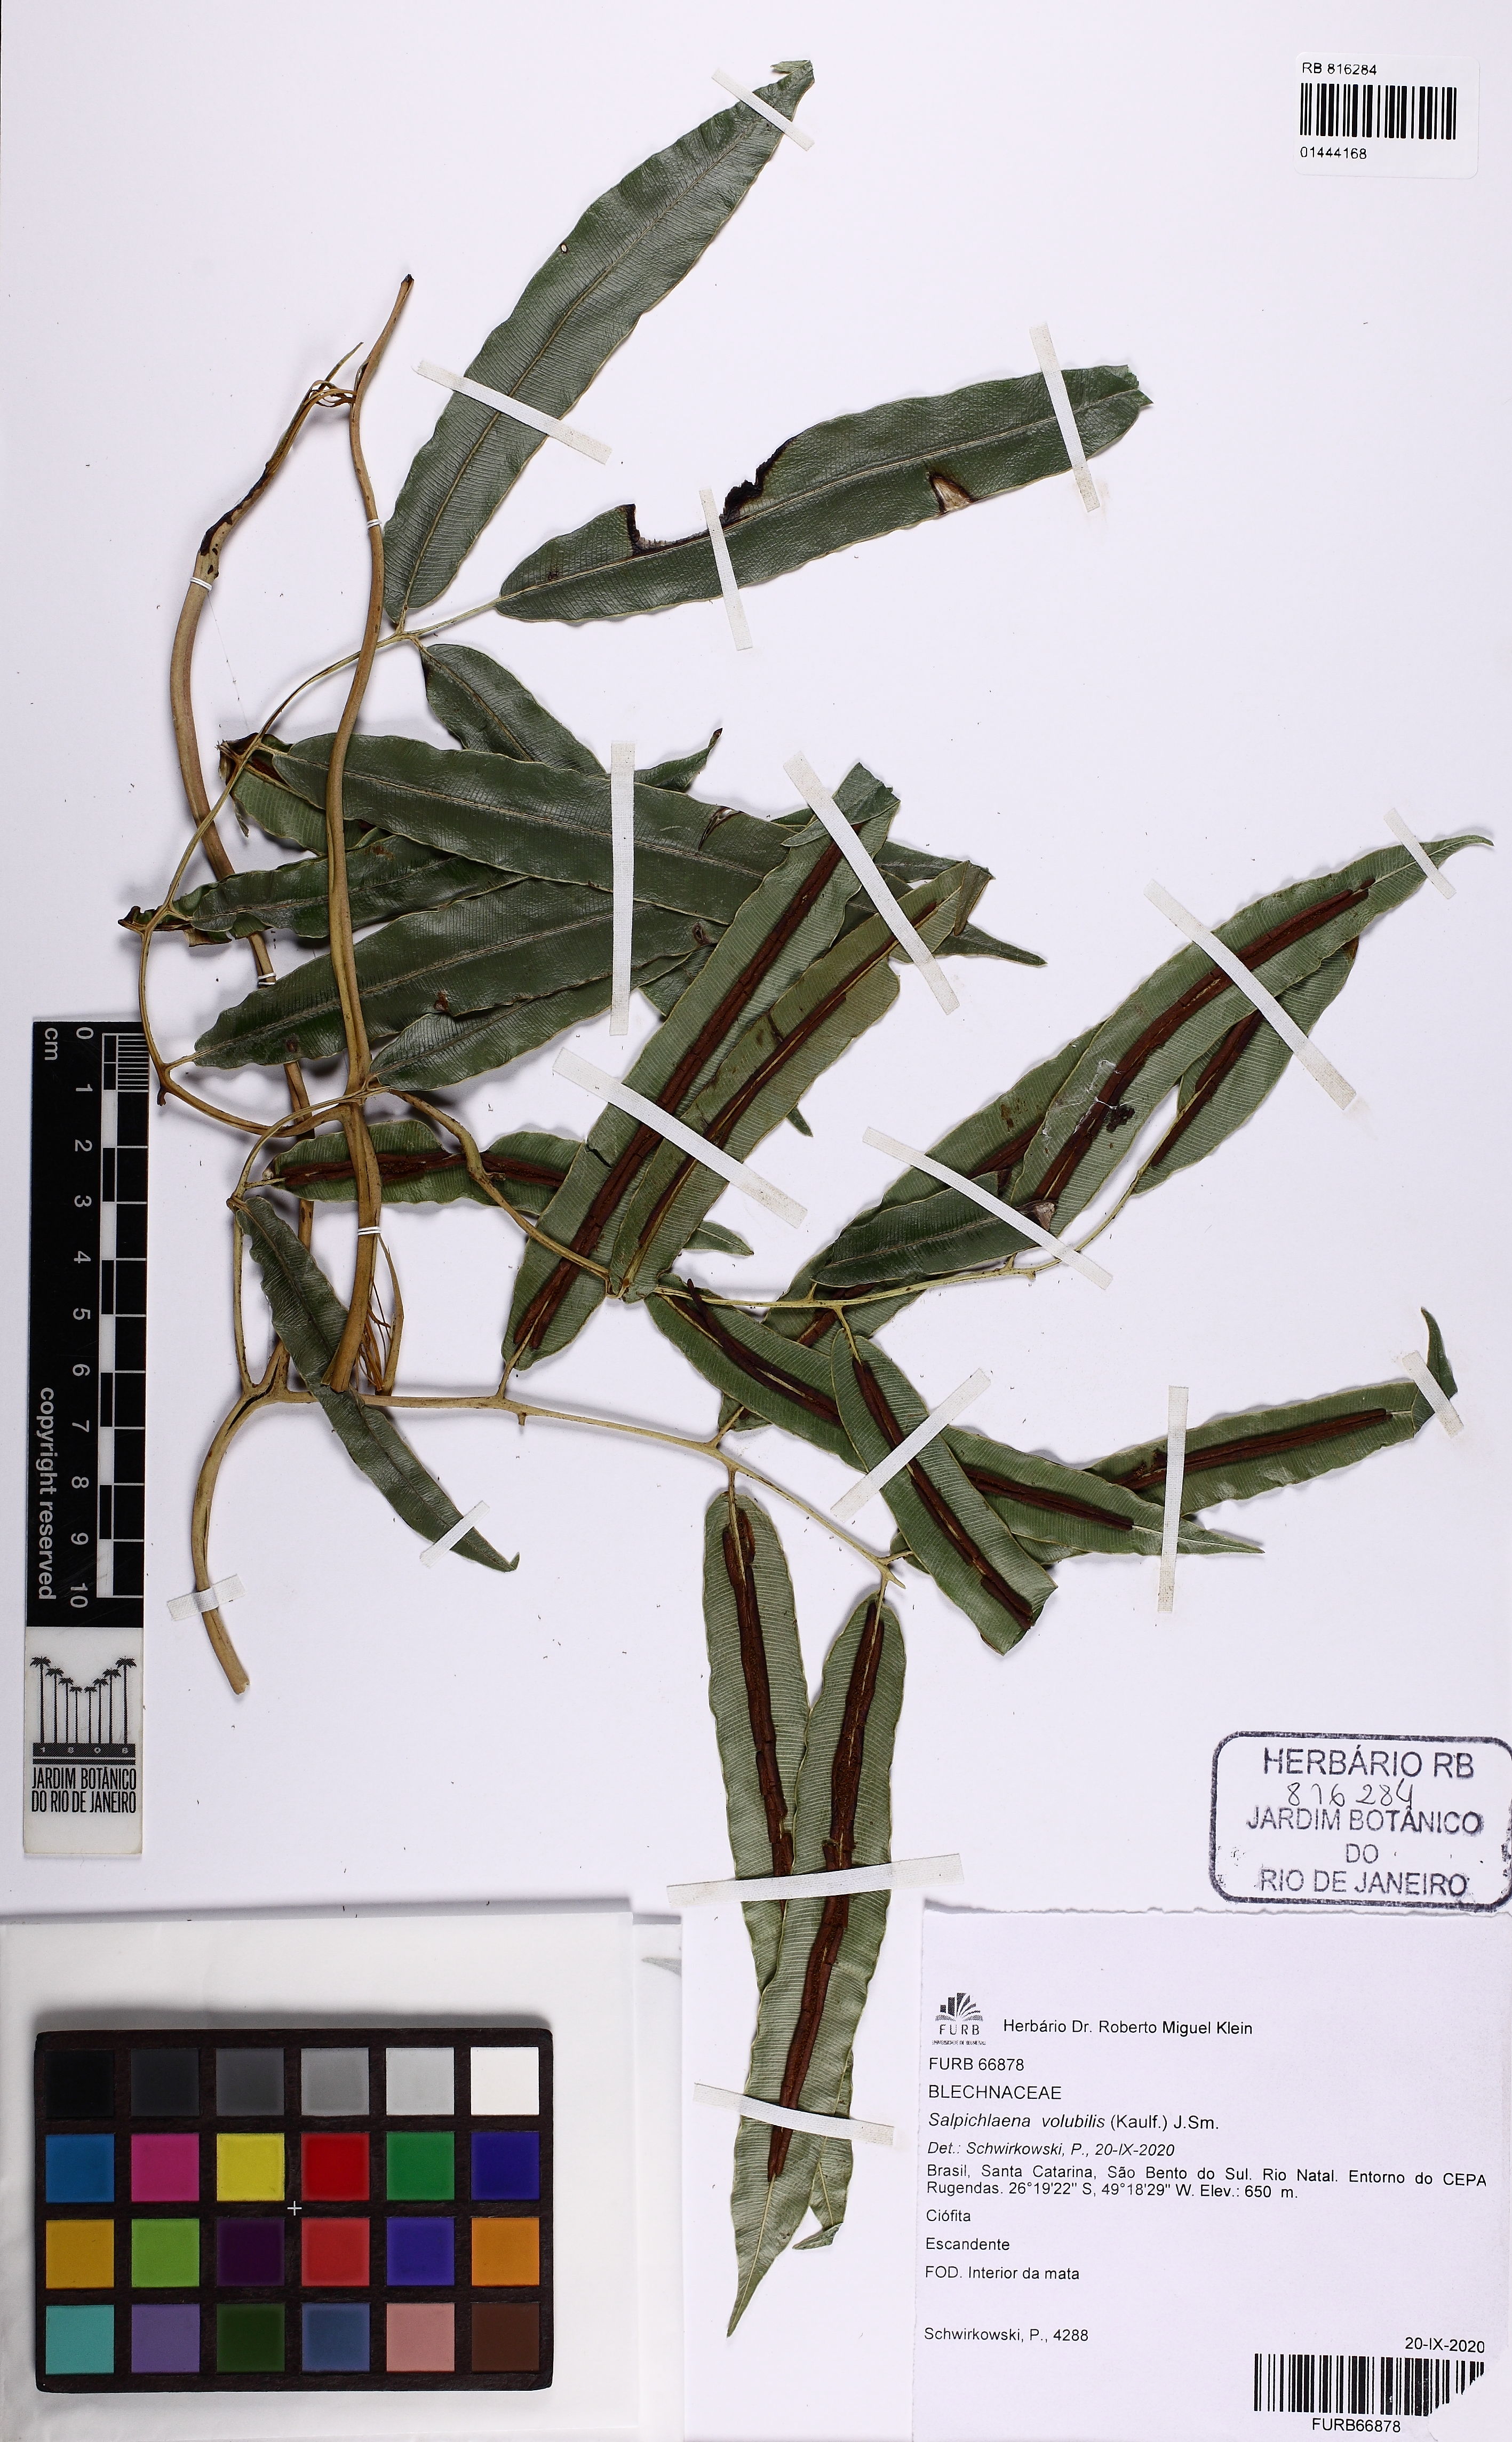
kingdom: Plantae
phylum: Tracheophyta
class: Polypodiopsida
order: Polypodiales
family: Blechnaceae
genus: Salpichlaena
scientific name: Salpichlaena volubilis
